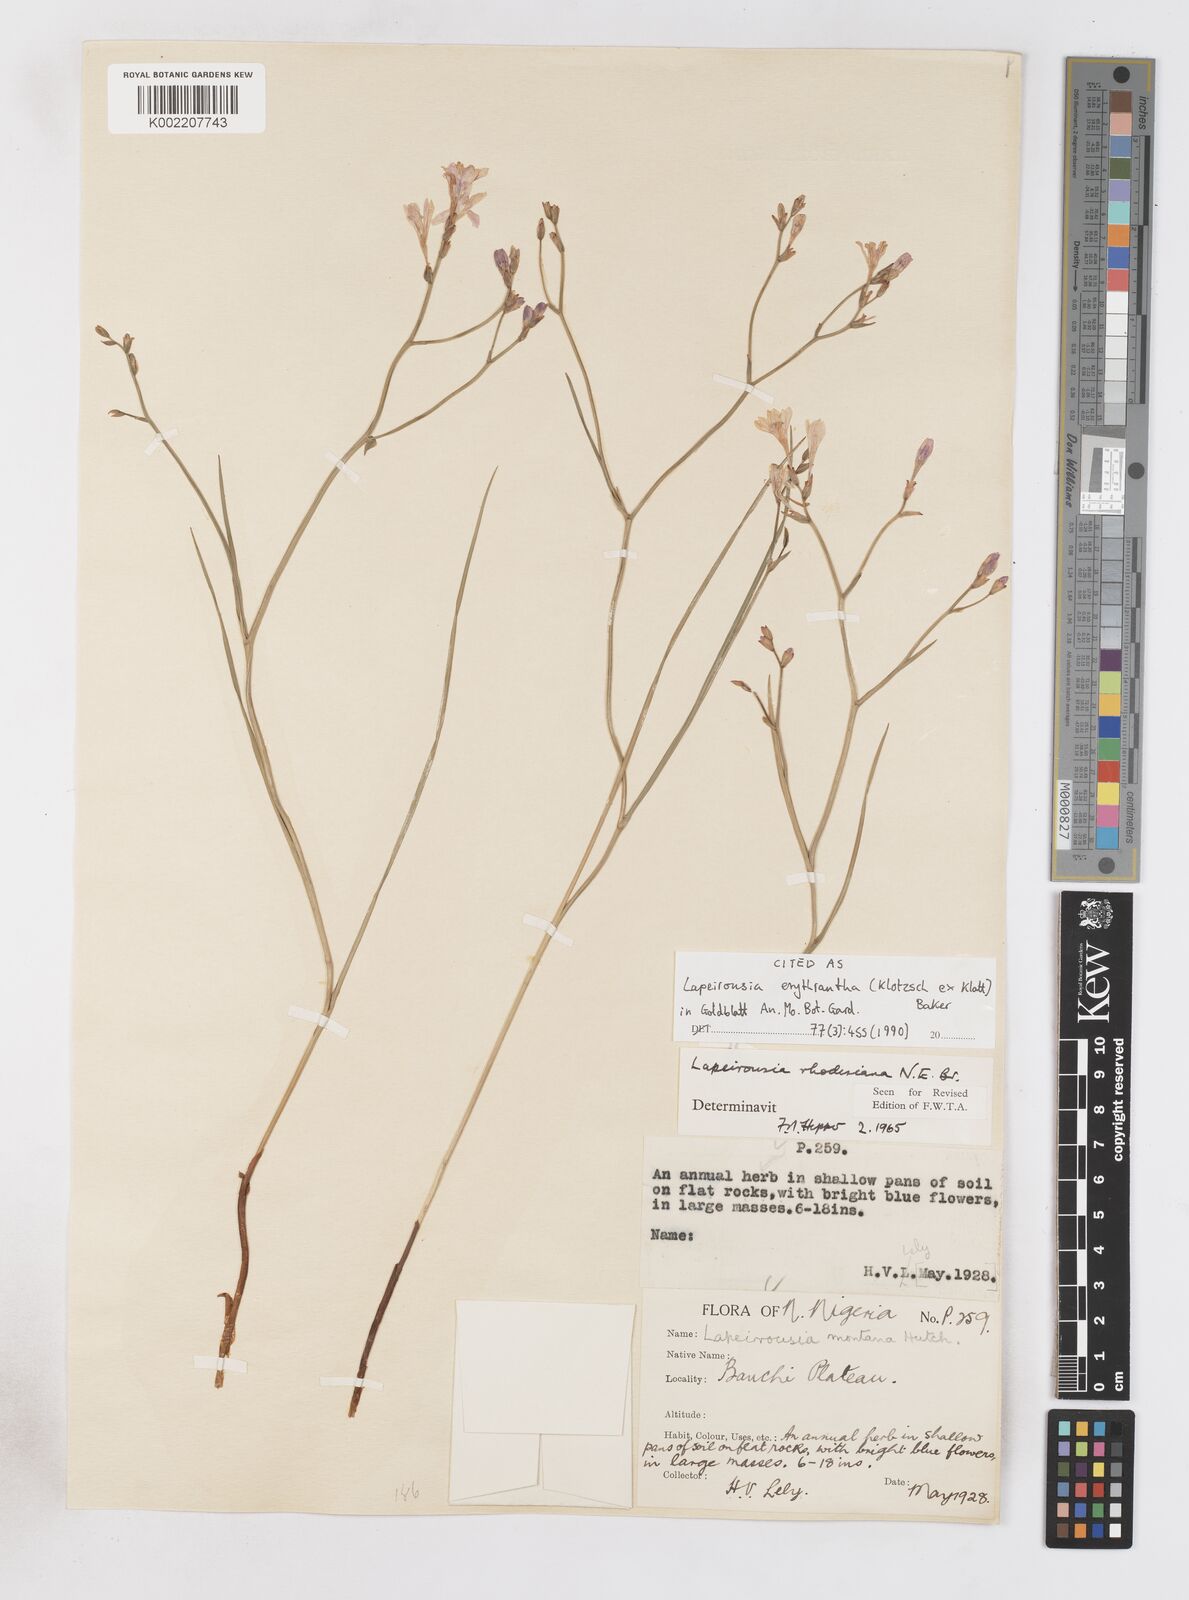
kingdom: Plantae
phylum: Tracheophyta
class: Liliopsida
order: Asparagales
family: Iridaceae
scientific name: Iridaceae
